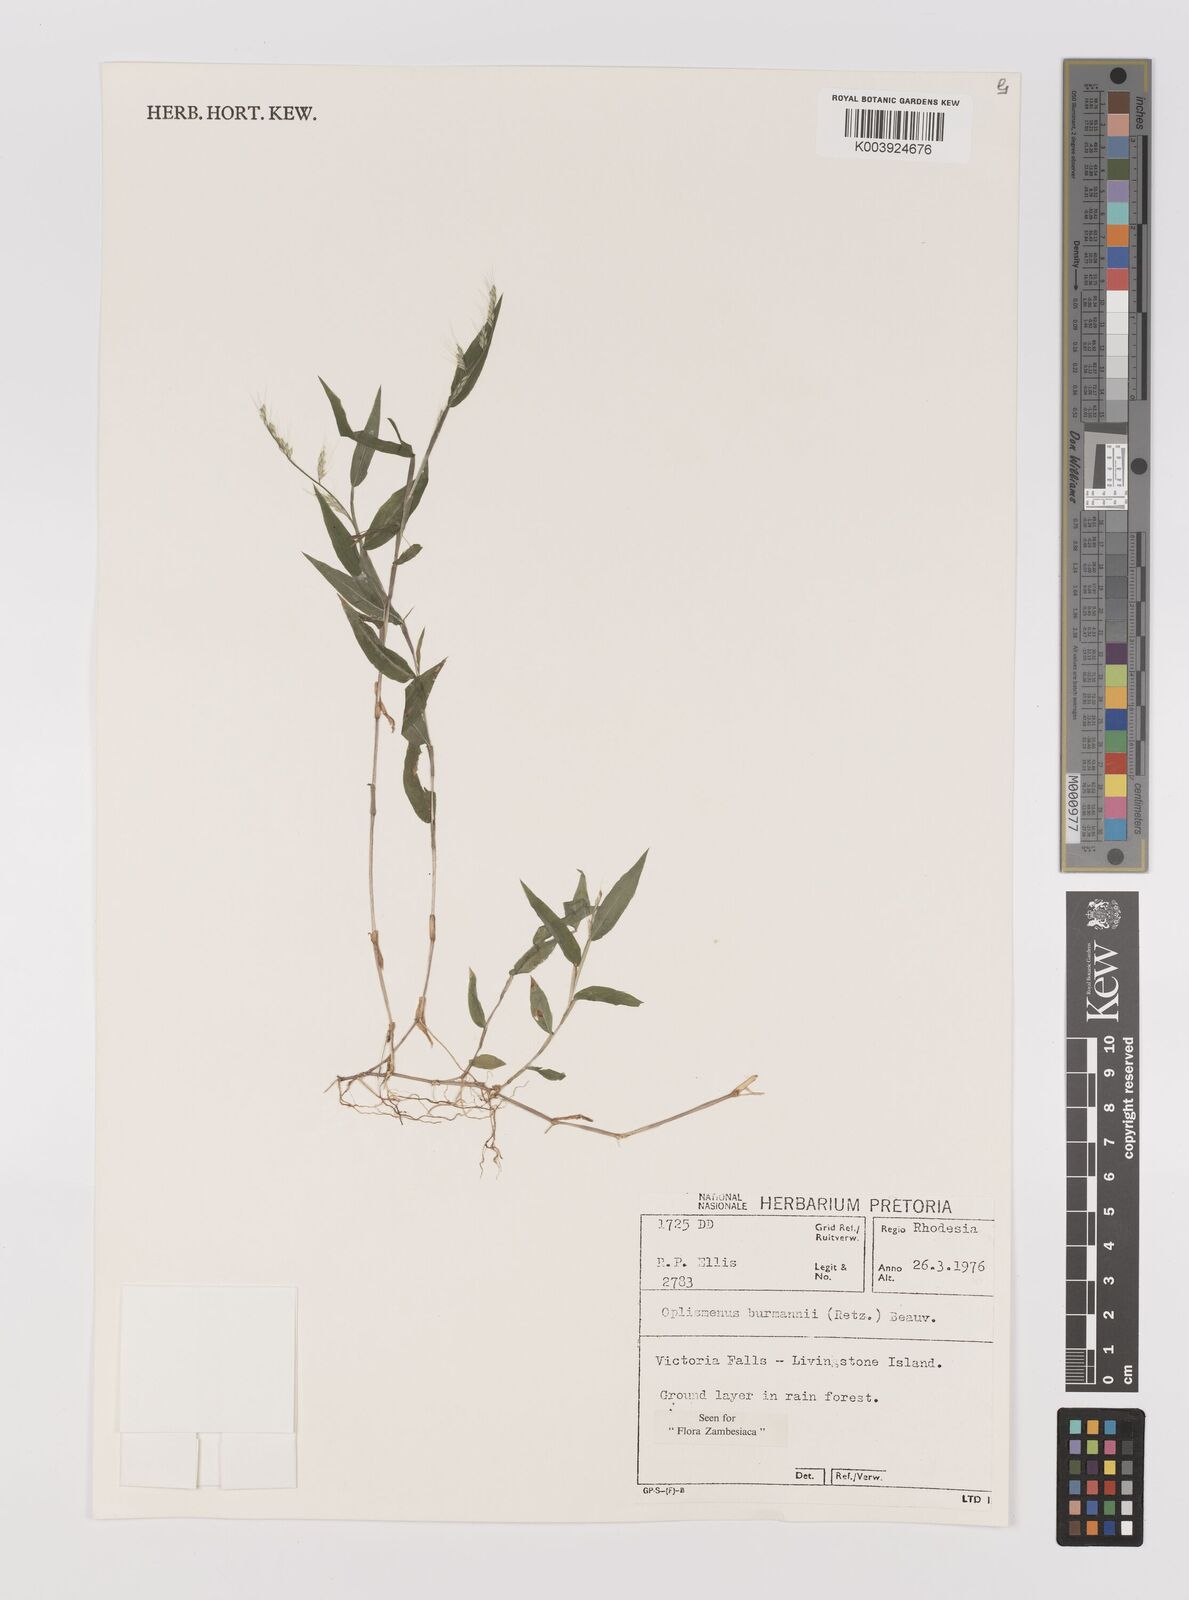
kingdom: Plantae
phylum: Tracheophyta
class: Liliopsida
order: Poales
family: Poaceae
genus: Oplismenus
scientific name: Oplismenus burmanni
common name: Burmann's basketgrass
